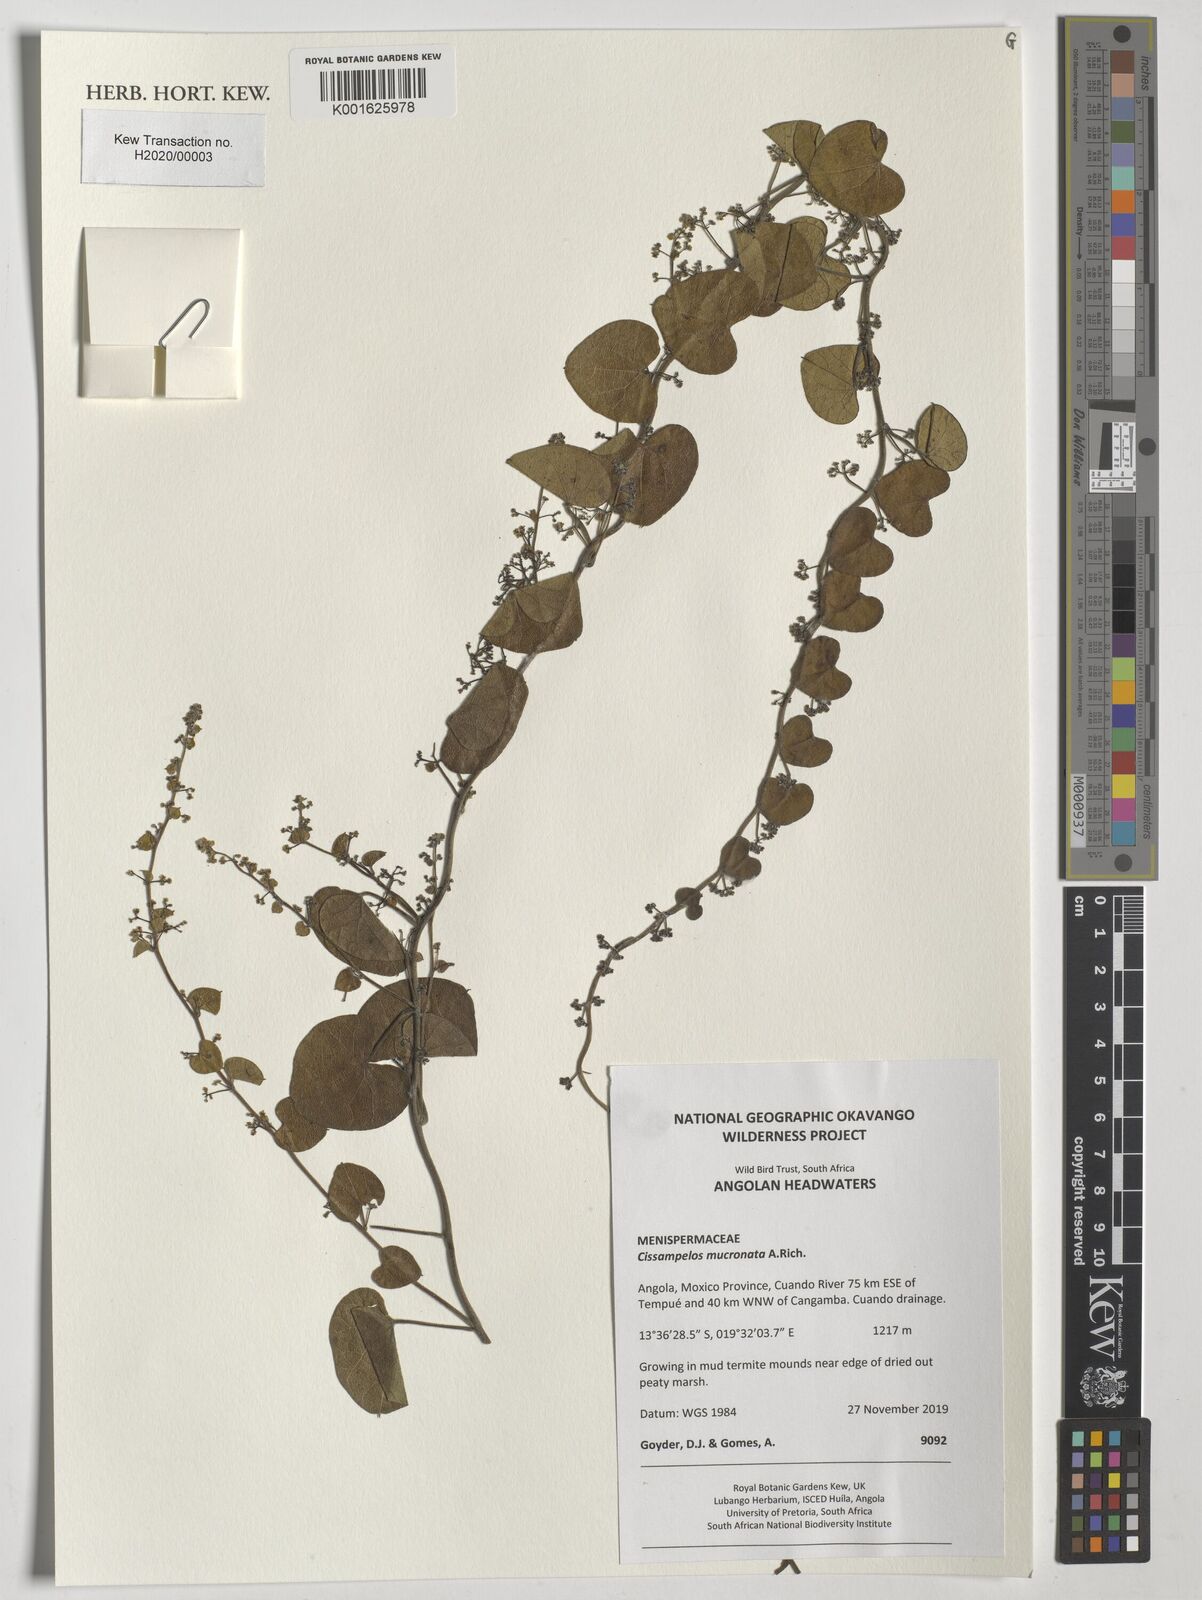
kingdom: Plantae
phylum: Tracheophyta
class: Magnoliopsida
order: Ranunculales
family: Menispermaceae
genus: Cissampelos
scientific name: Cissampelos mucronata
